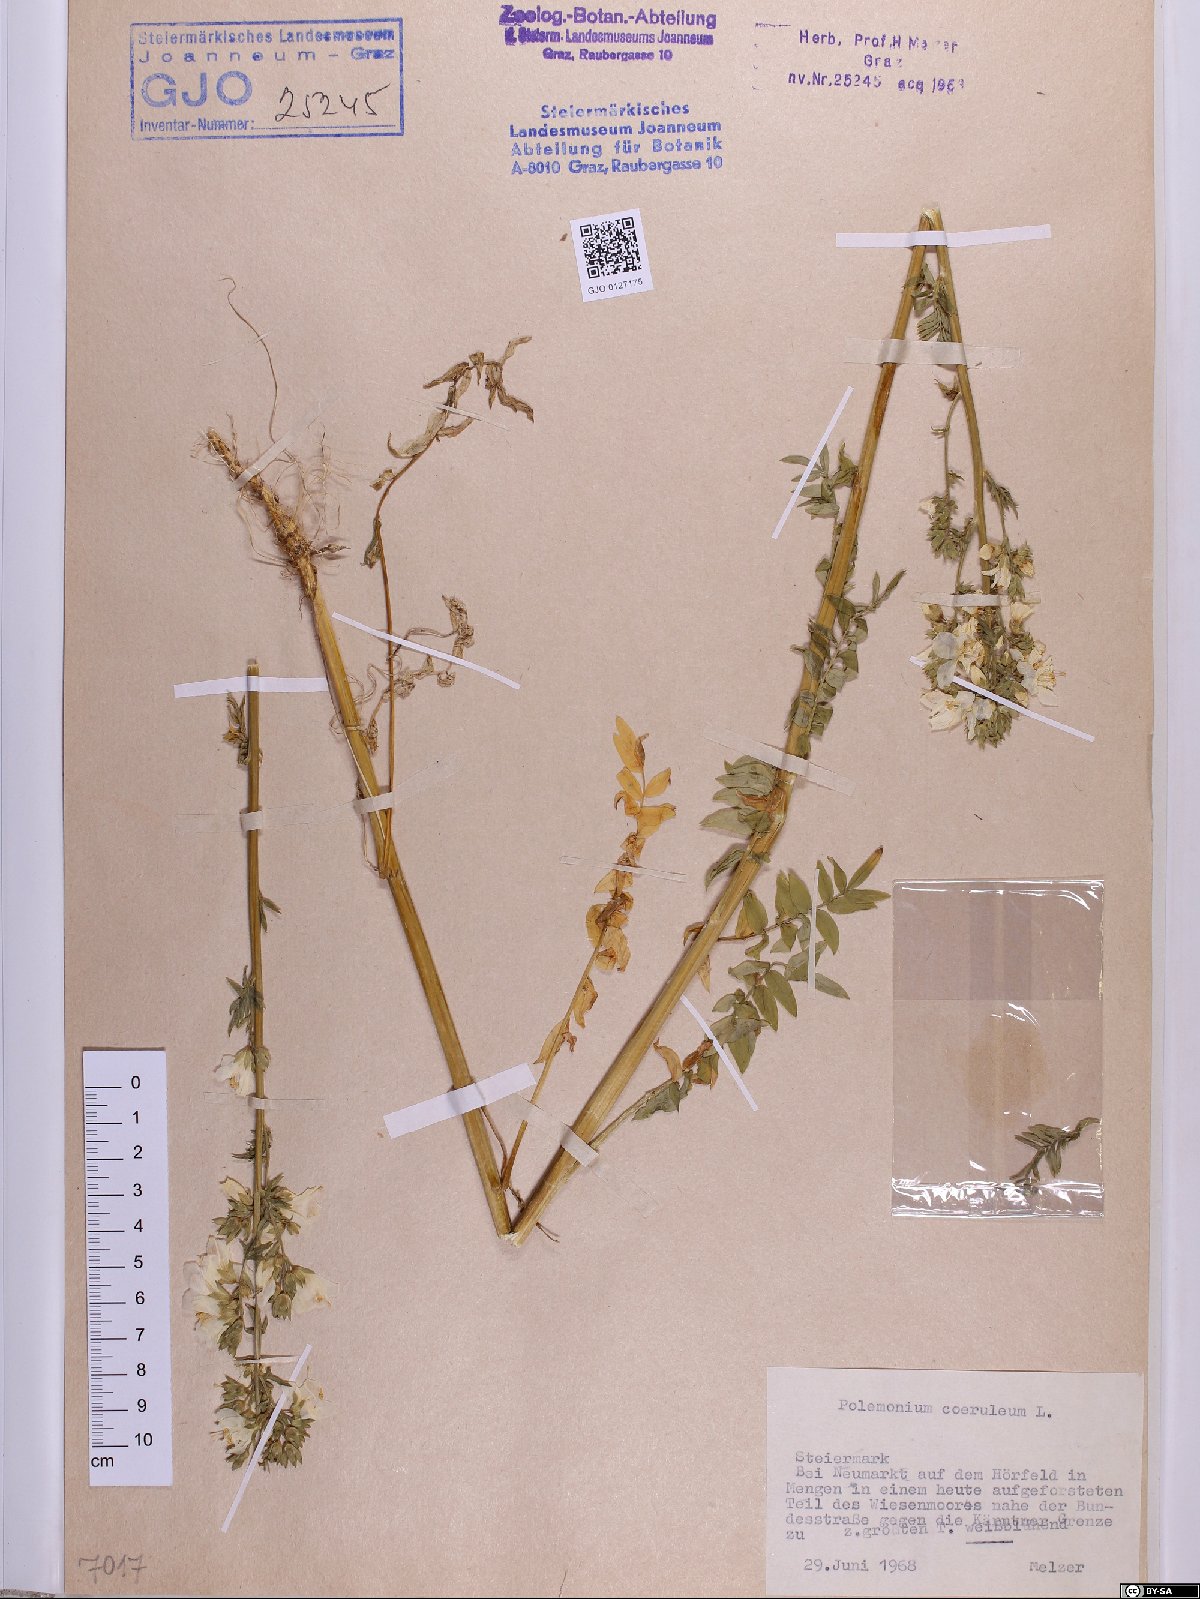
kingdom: Plantae
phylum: Tracheophyta
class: Magnoliopsida
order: Ericales
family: Polemoniaceae
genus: Polemonium
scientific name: Polemonium caeruleum
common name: Jacob's-ladder
